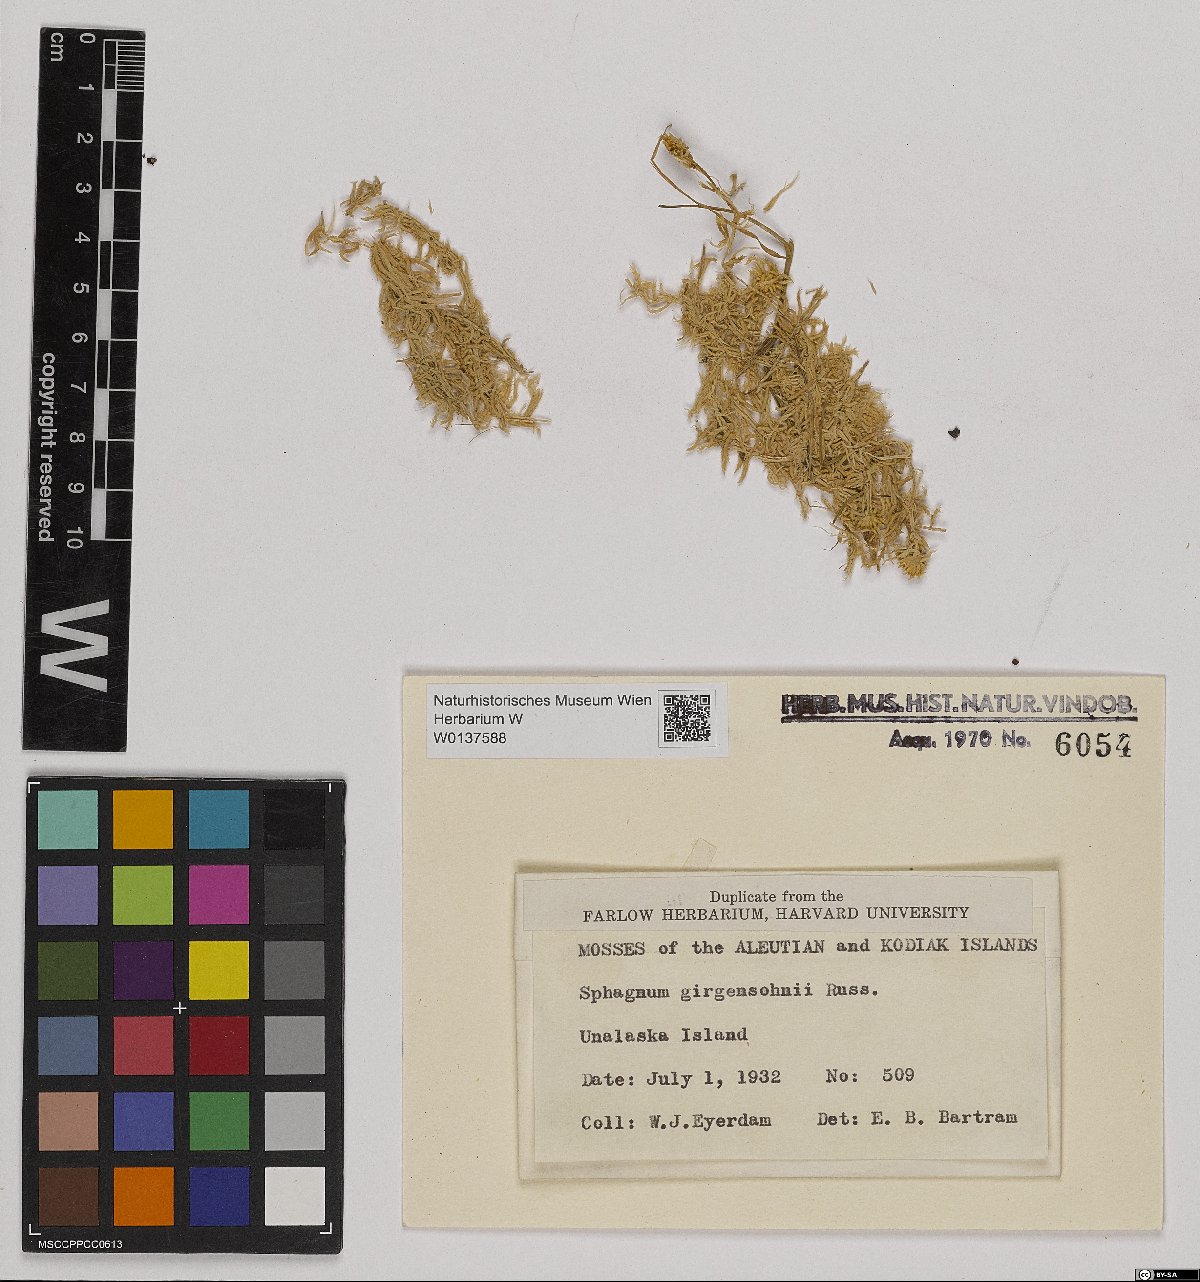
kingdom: Plantae
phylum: Bryophyta
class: Sphagnopsida
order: Sphagnales
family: Sphagnaceae
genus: Sphagnum
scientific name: Sphagnum girgensohnii
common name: Girgensohn's peat moss
